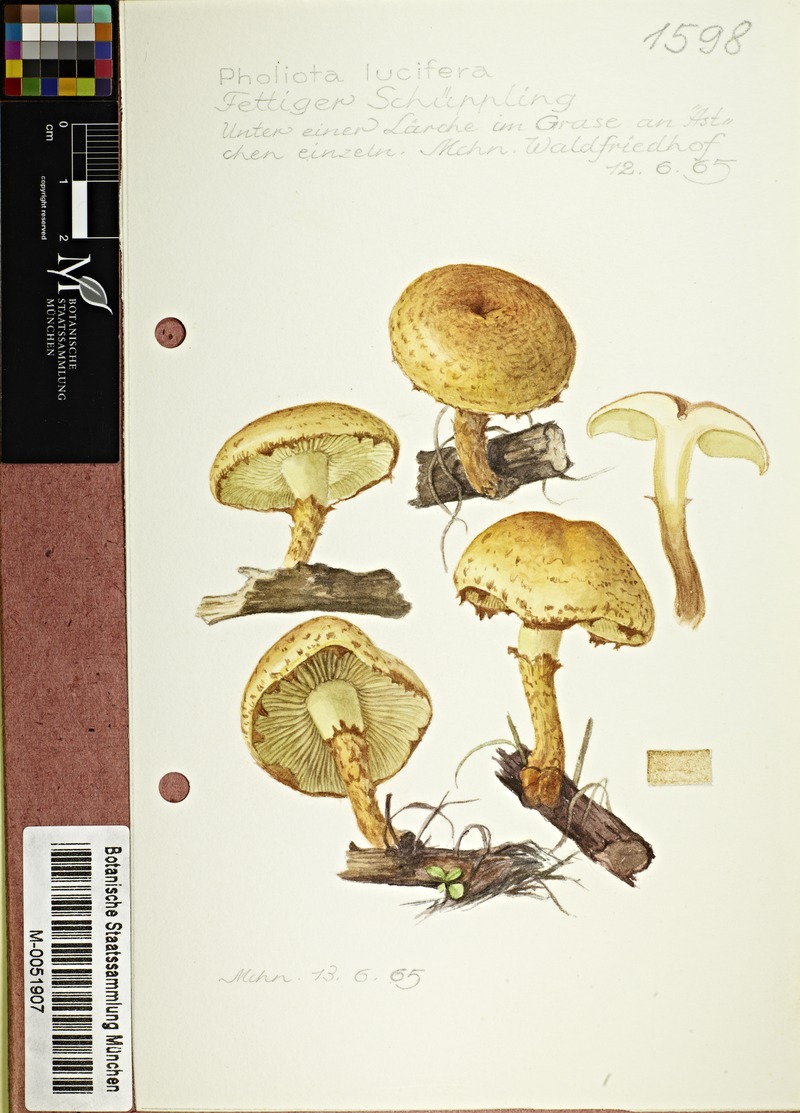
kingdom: Fungi
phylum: Basidiomycota
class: Agaricomycetes
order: Agaricales
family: Strophariaceae
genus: Pholiota
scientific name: Pholiota lucifera
